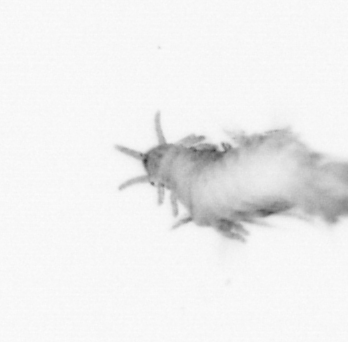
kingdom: Animalia
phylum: Annelida
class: Polychaeta
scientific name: Polychaeta
